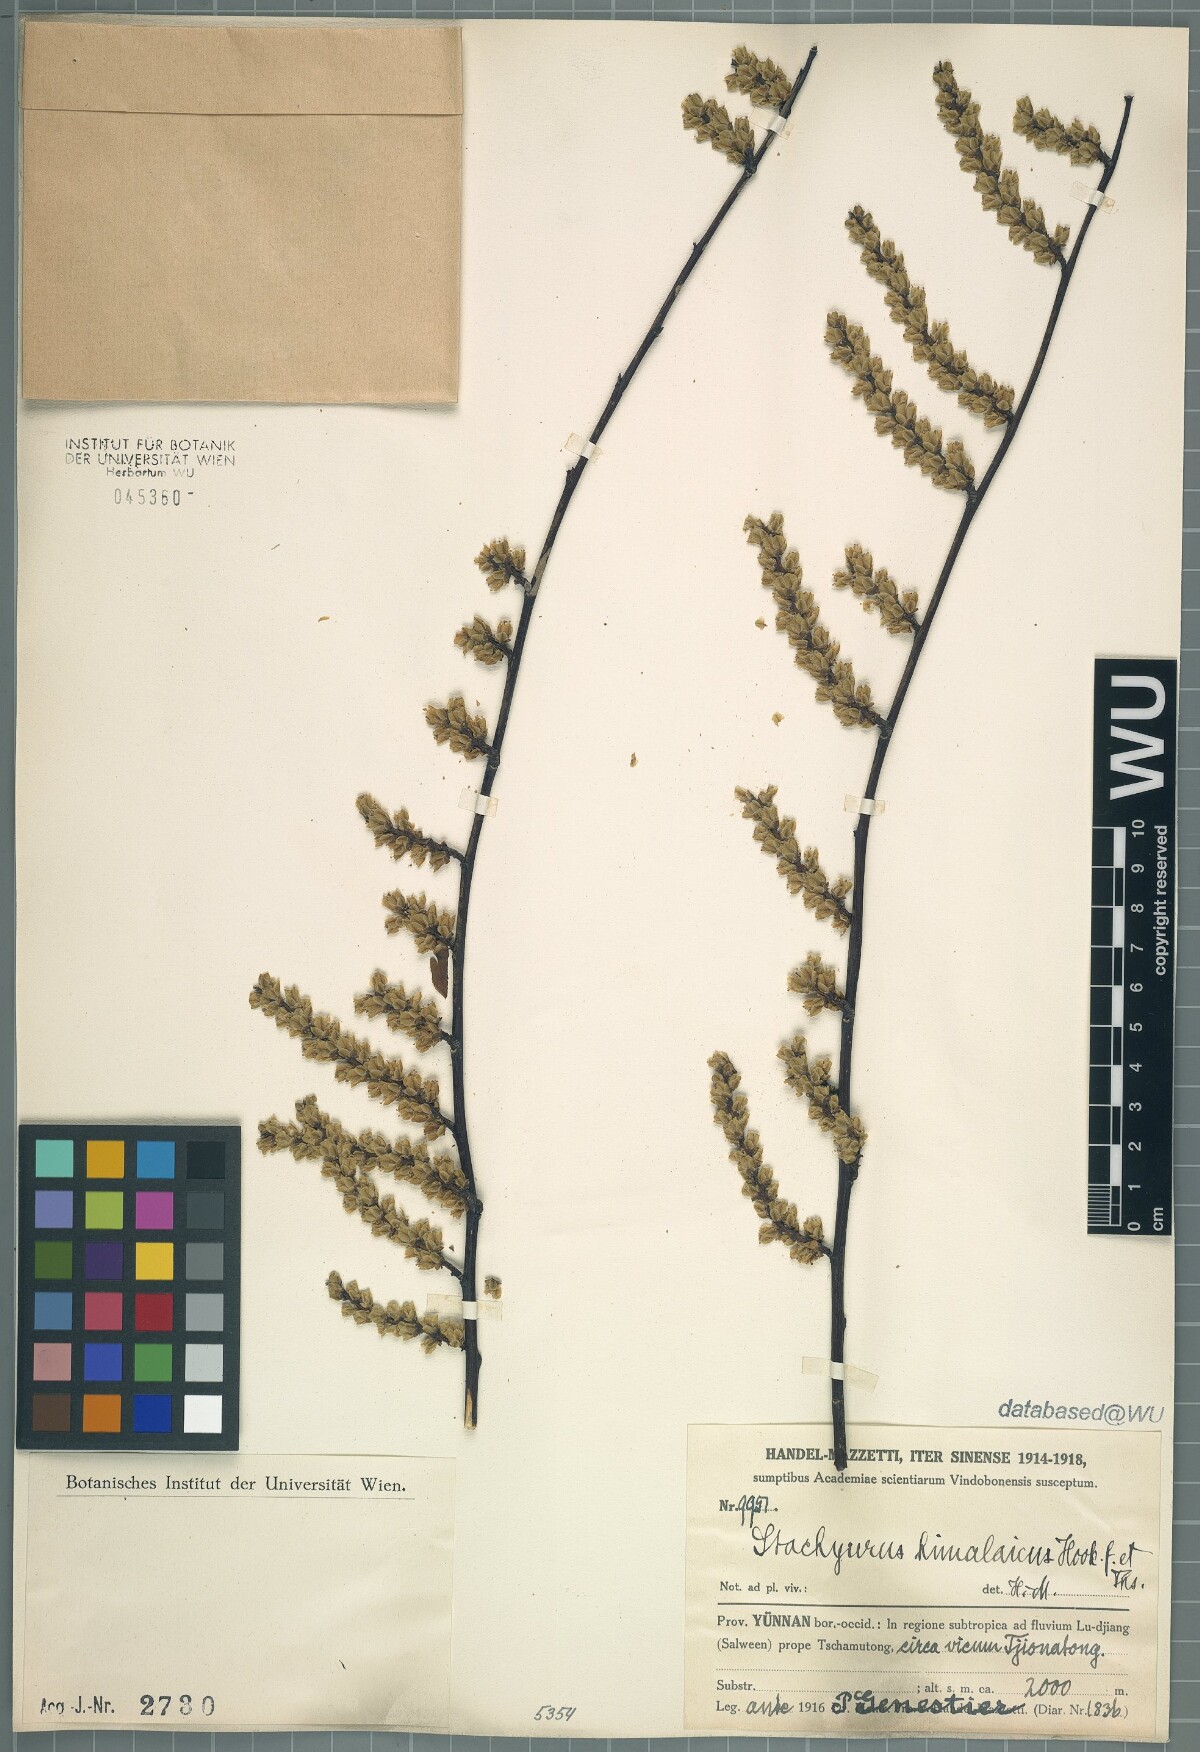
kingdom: Plantae
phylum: Tracheophyta
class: Magnoliopsida
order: Crossosomatales
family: Stachyuraceae
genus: Stachyurus
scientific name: Stachyurus himalaicus
